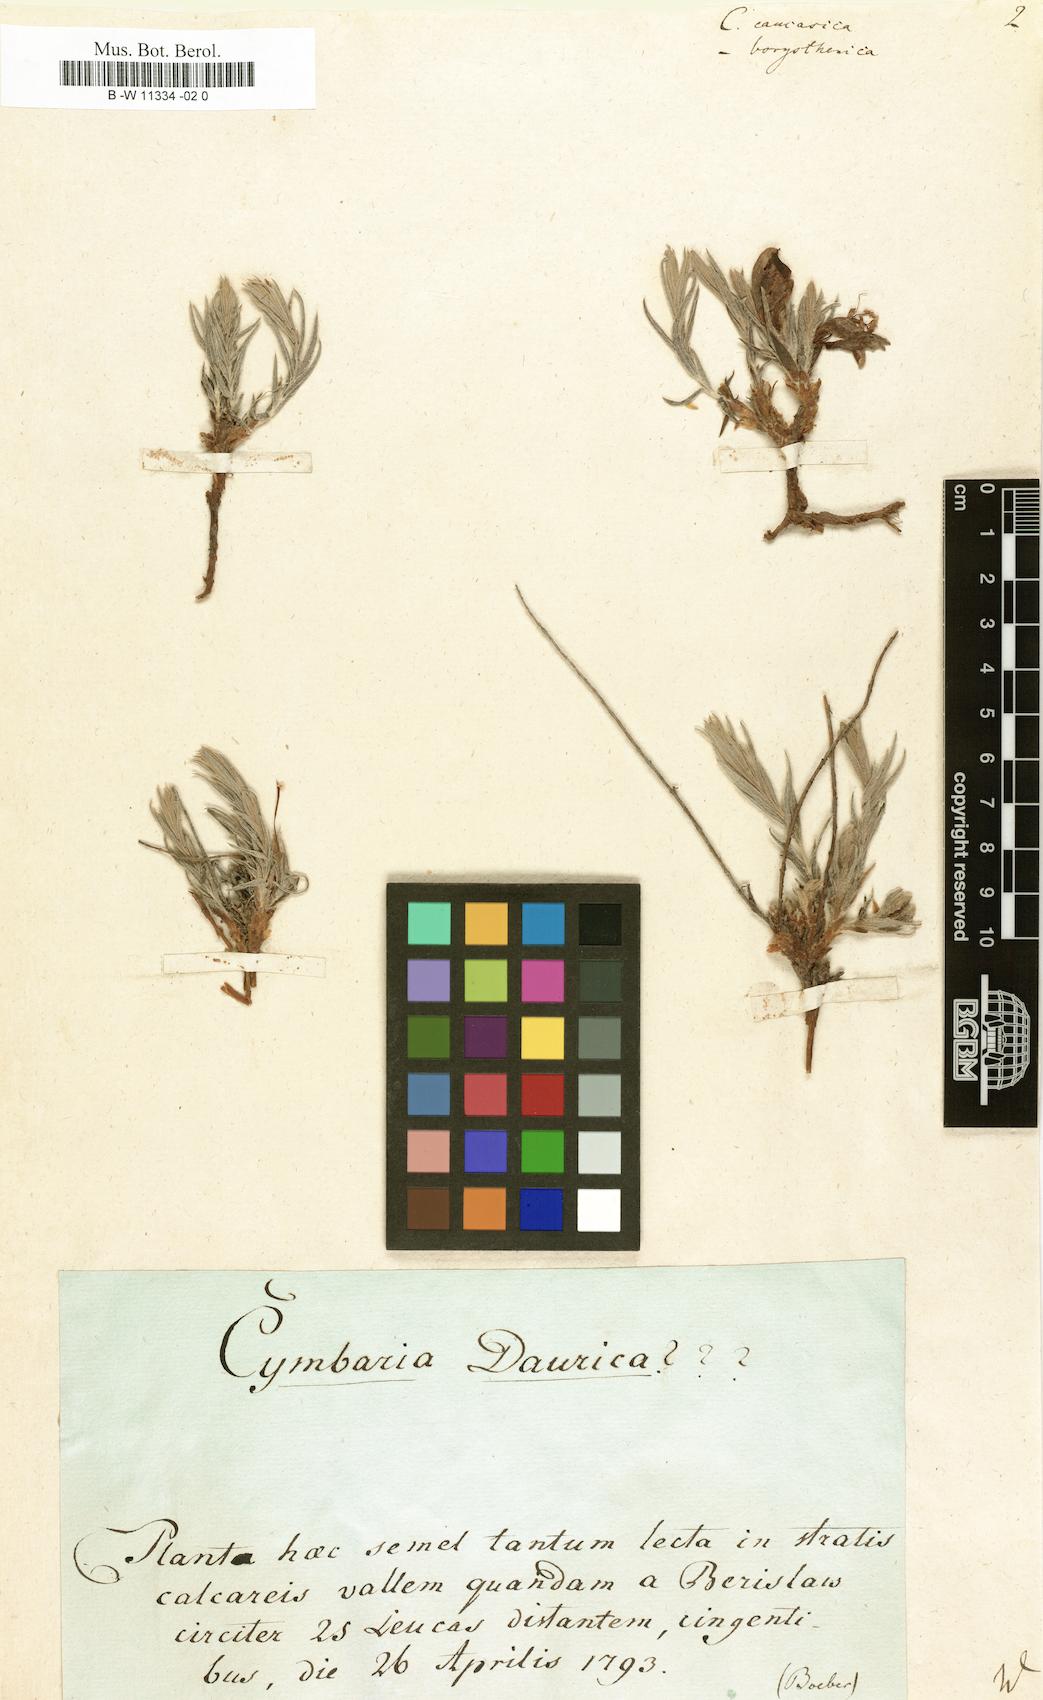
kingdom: Plantae
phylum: Tracheophyta
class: Magnoliopsida
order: Lamiales
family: Scrophulariaceae
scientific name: Scrophulariaceae
